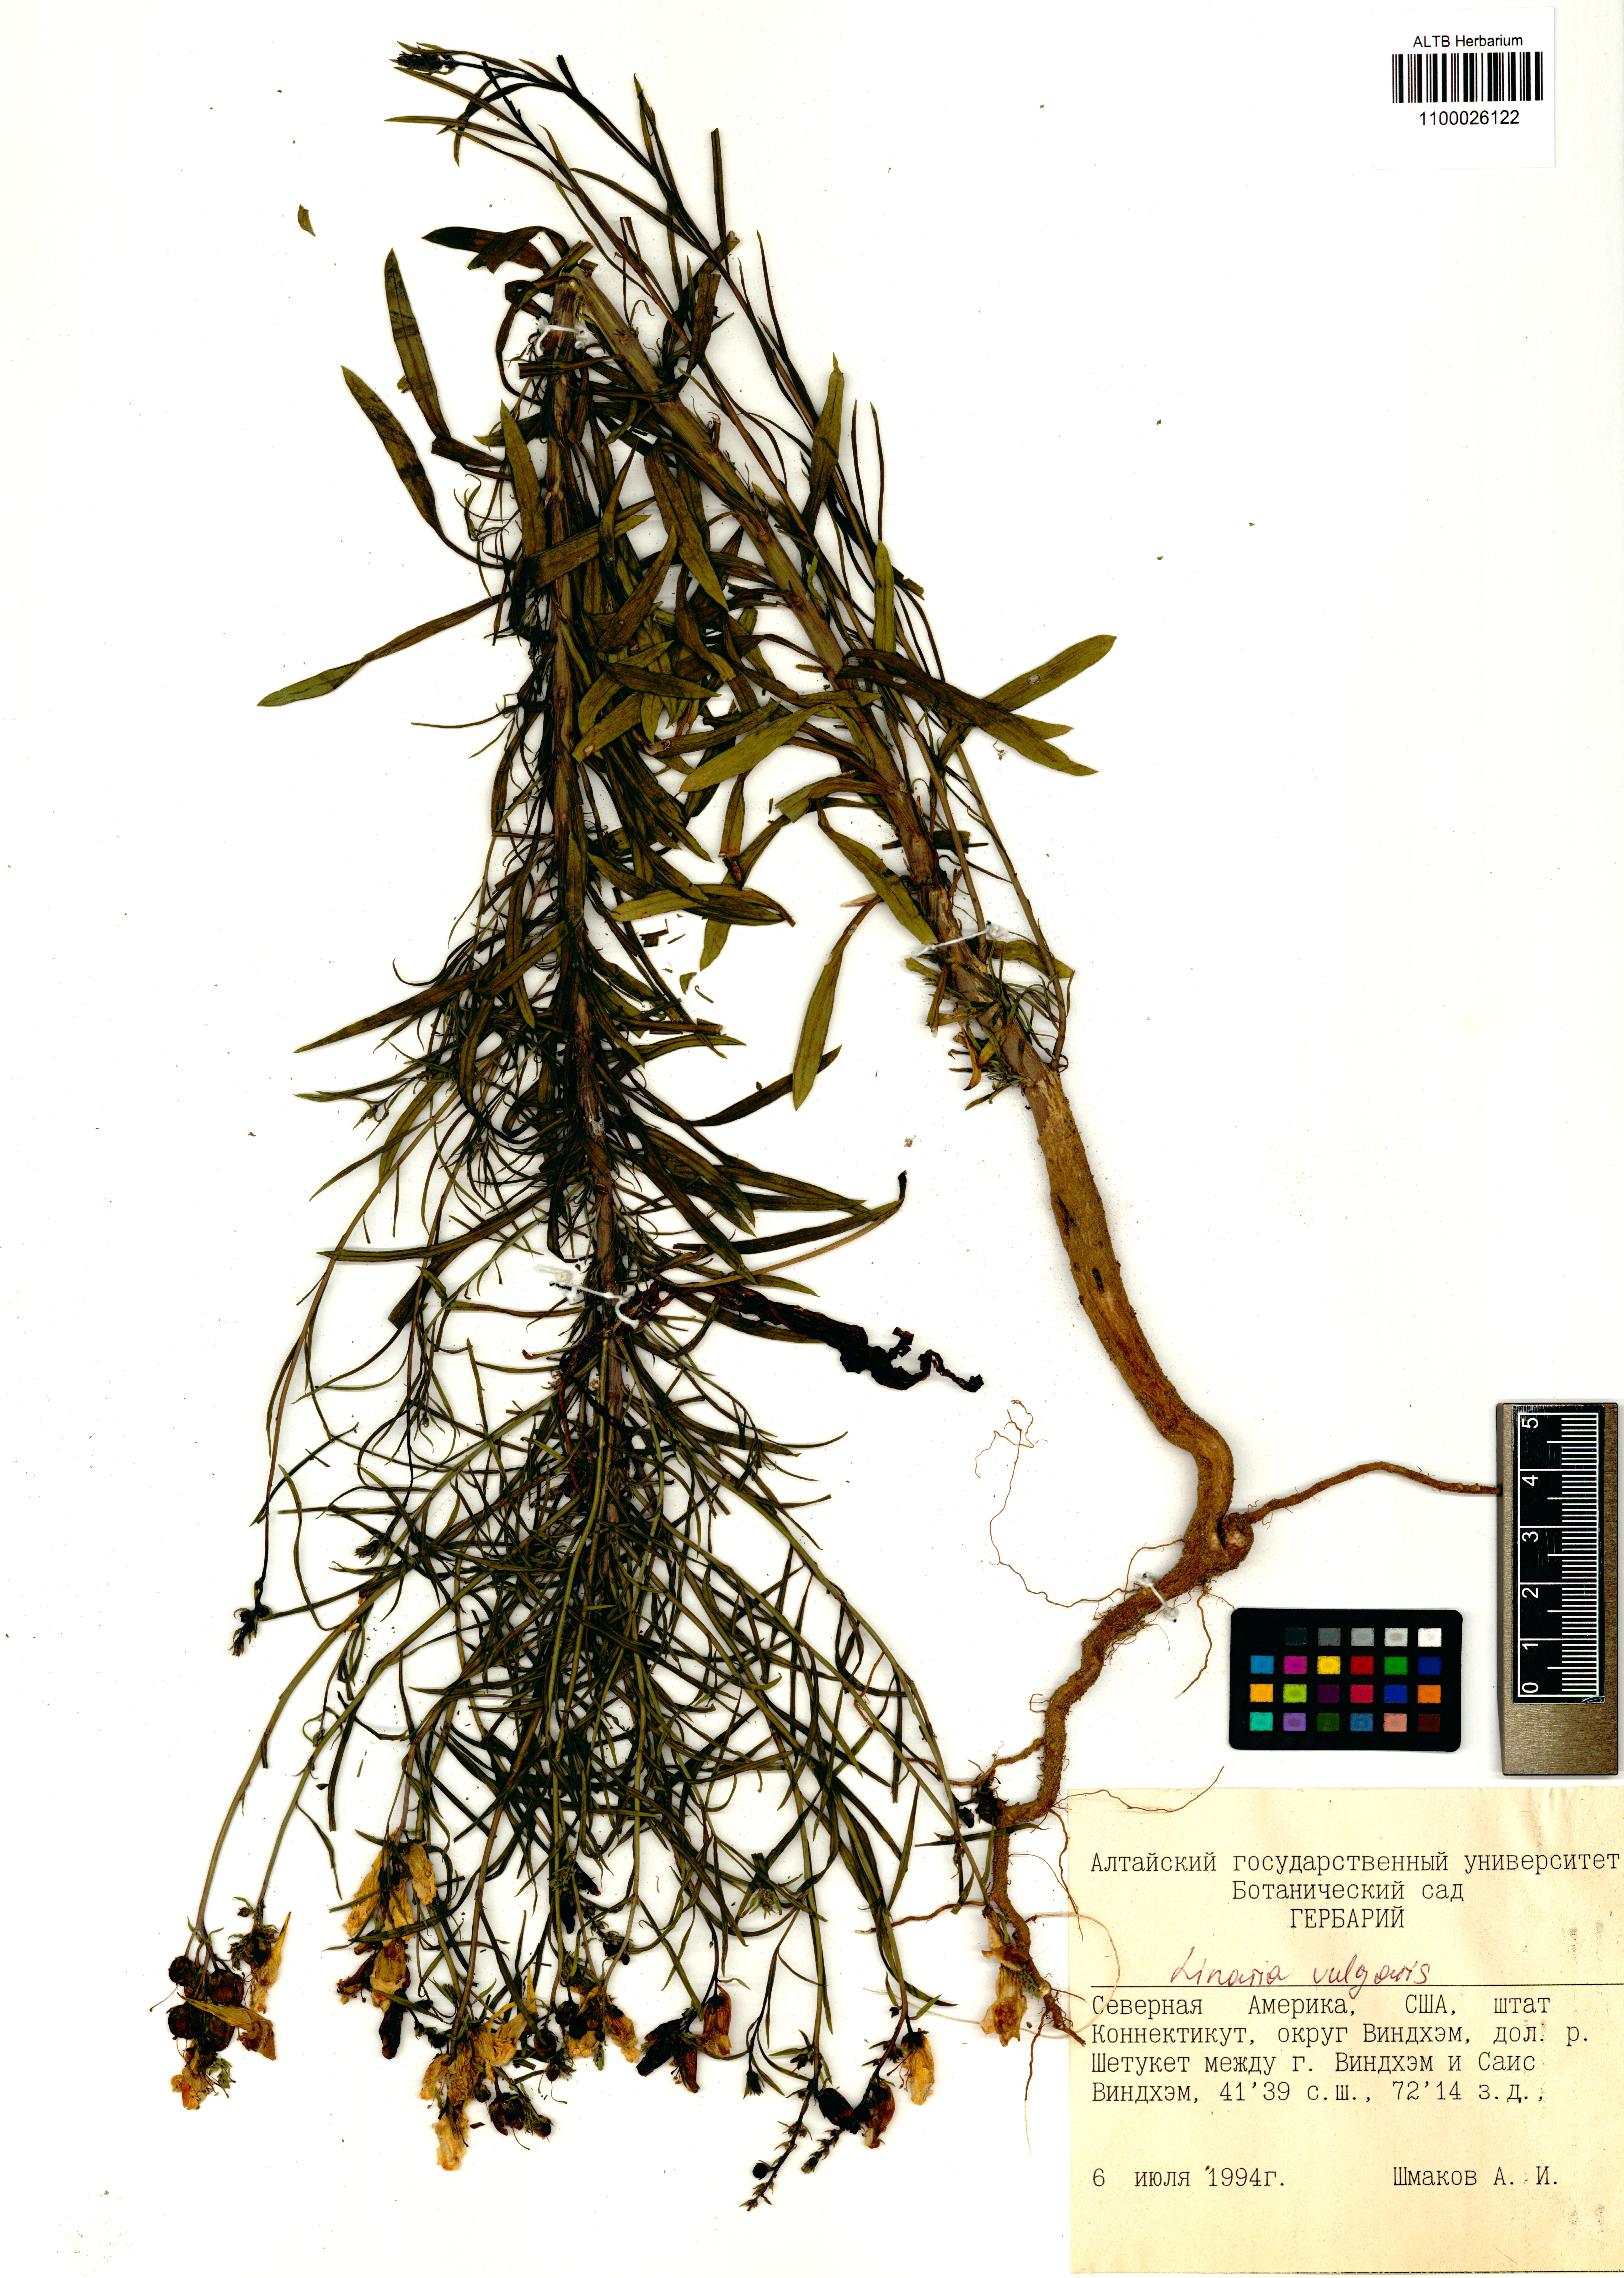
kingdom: Plantae
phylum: Tracheophyta
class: Magnoliopsida
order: Lamiales
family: Plantaginaceae
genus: Linaria
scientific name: Linaria vulgaris
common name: Butter and eggs
